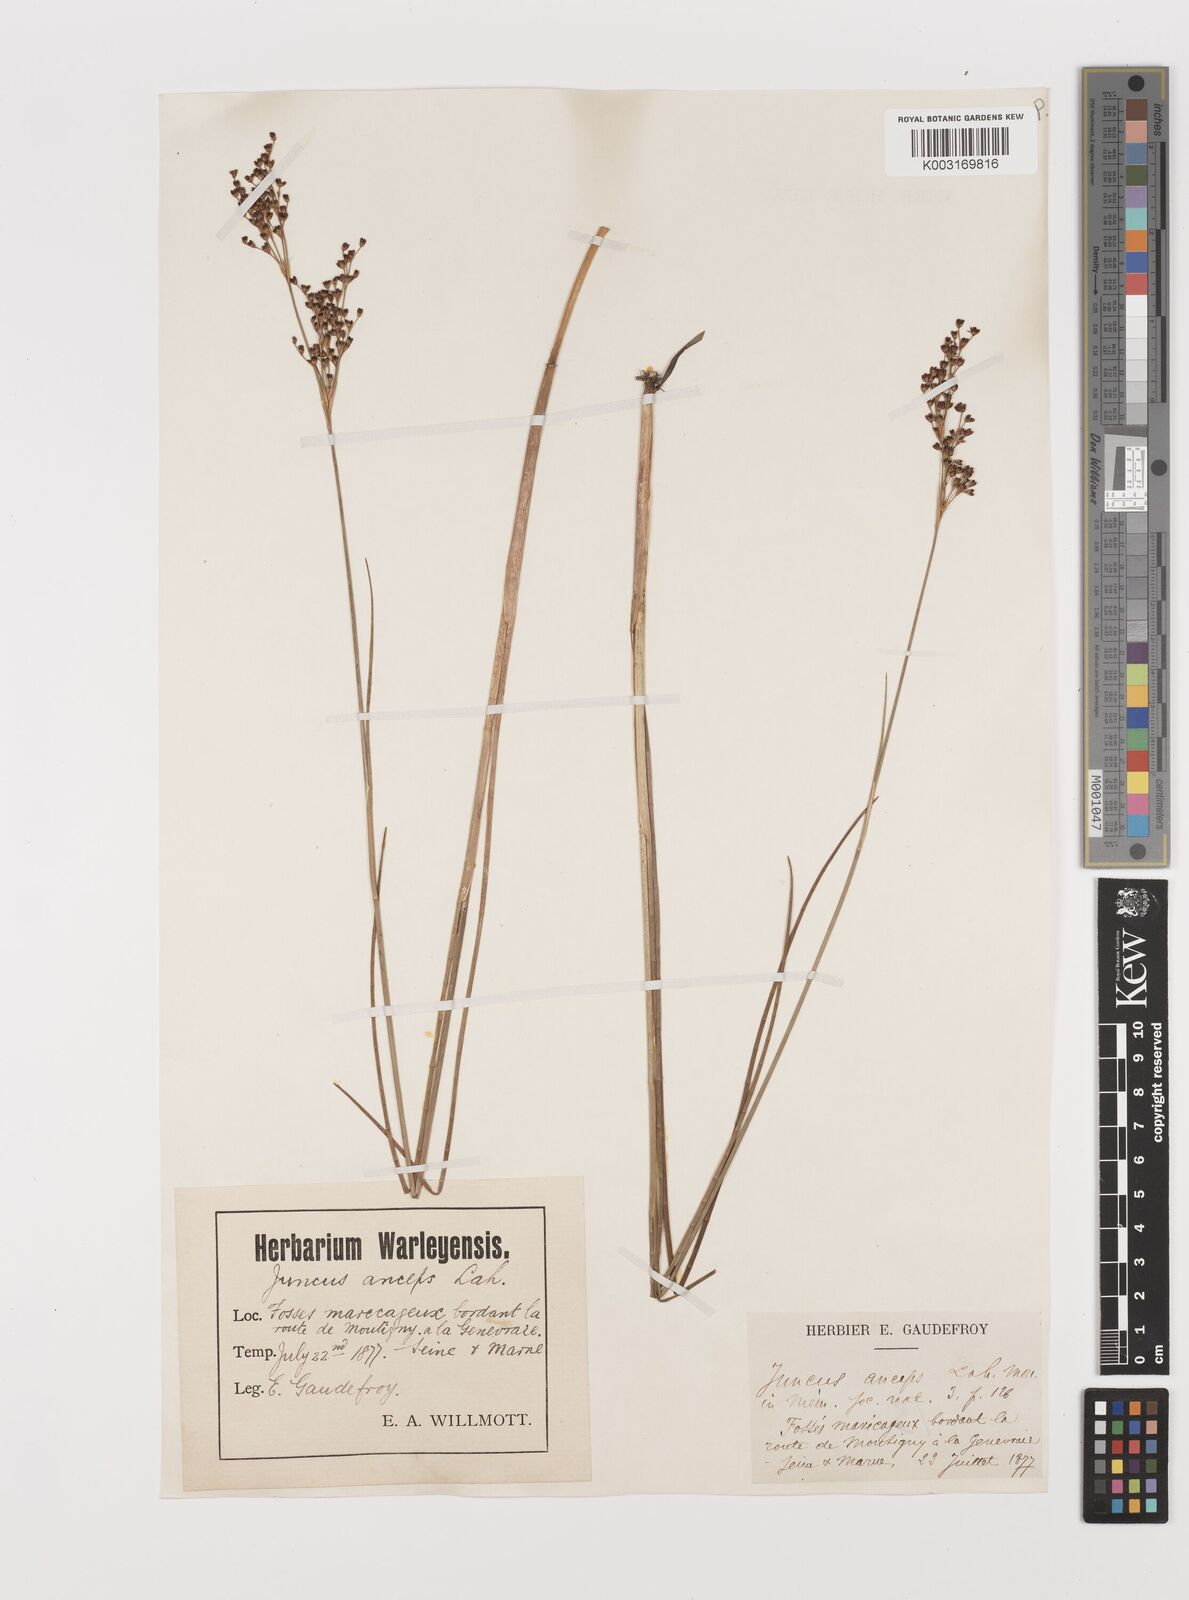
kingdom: Plantae
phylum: Tracheophyta
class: Liliopsida
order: Poales
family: Juncaceae
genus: Juncus
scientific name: Juncus anceps
